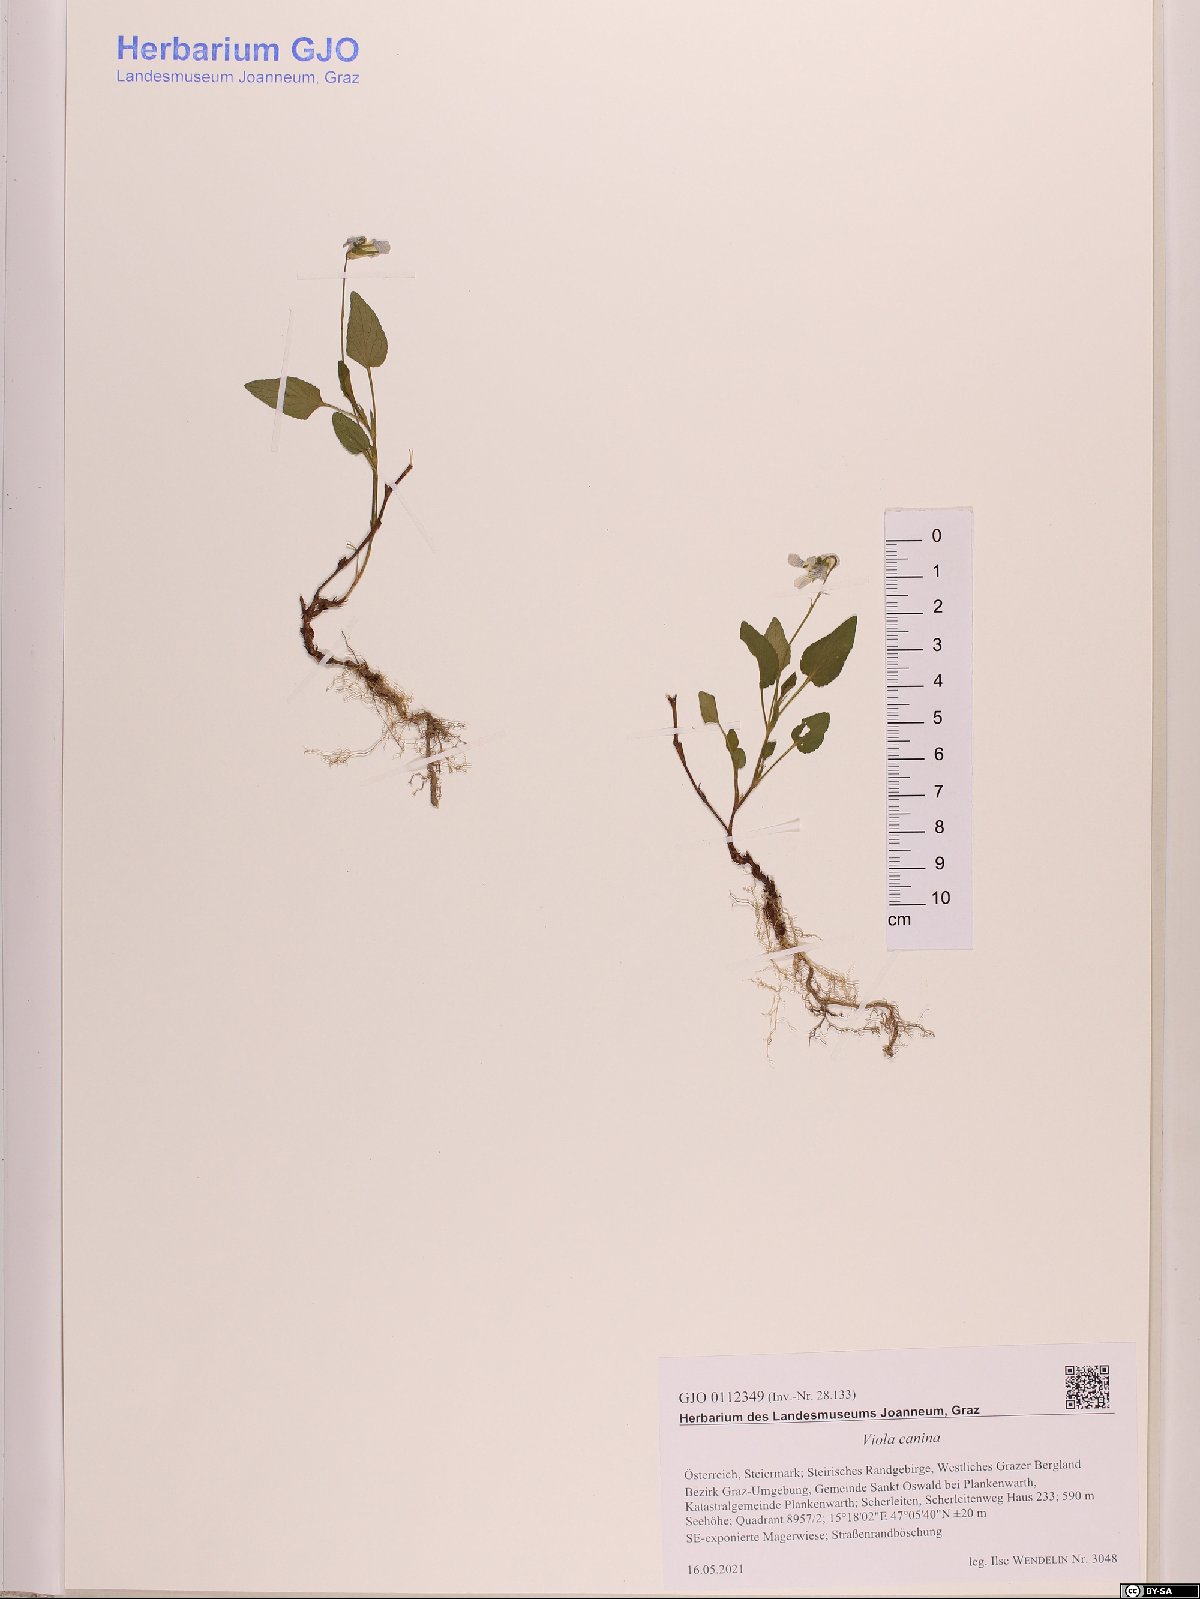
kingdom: Plantae
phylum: Tracheophyta
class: Magnoliopsida
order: Malpighiales
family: Violaceae
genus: Viola
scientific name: Viola canina
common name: Heath dog-violet
